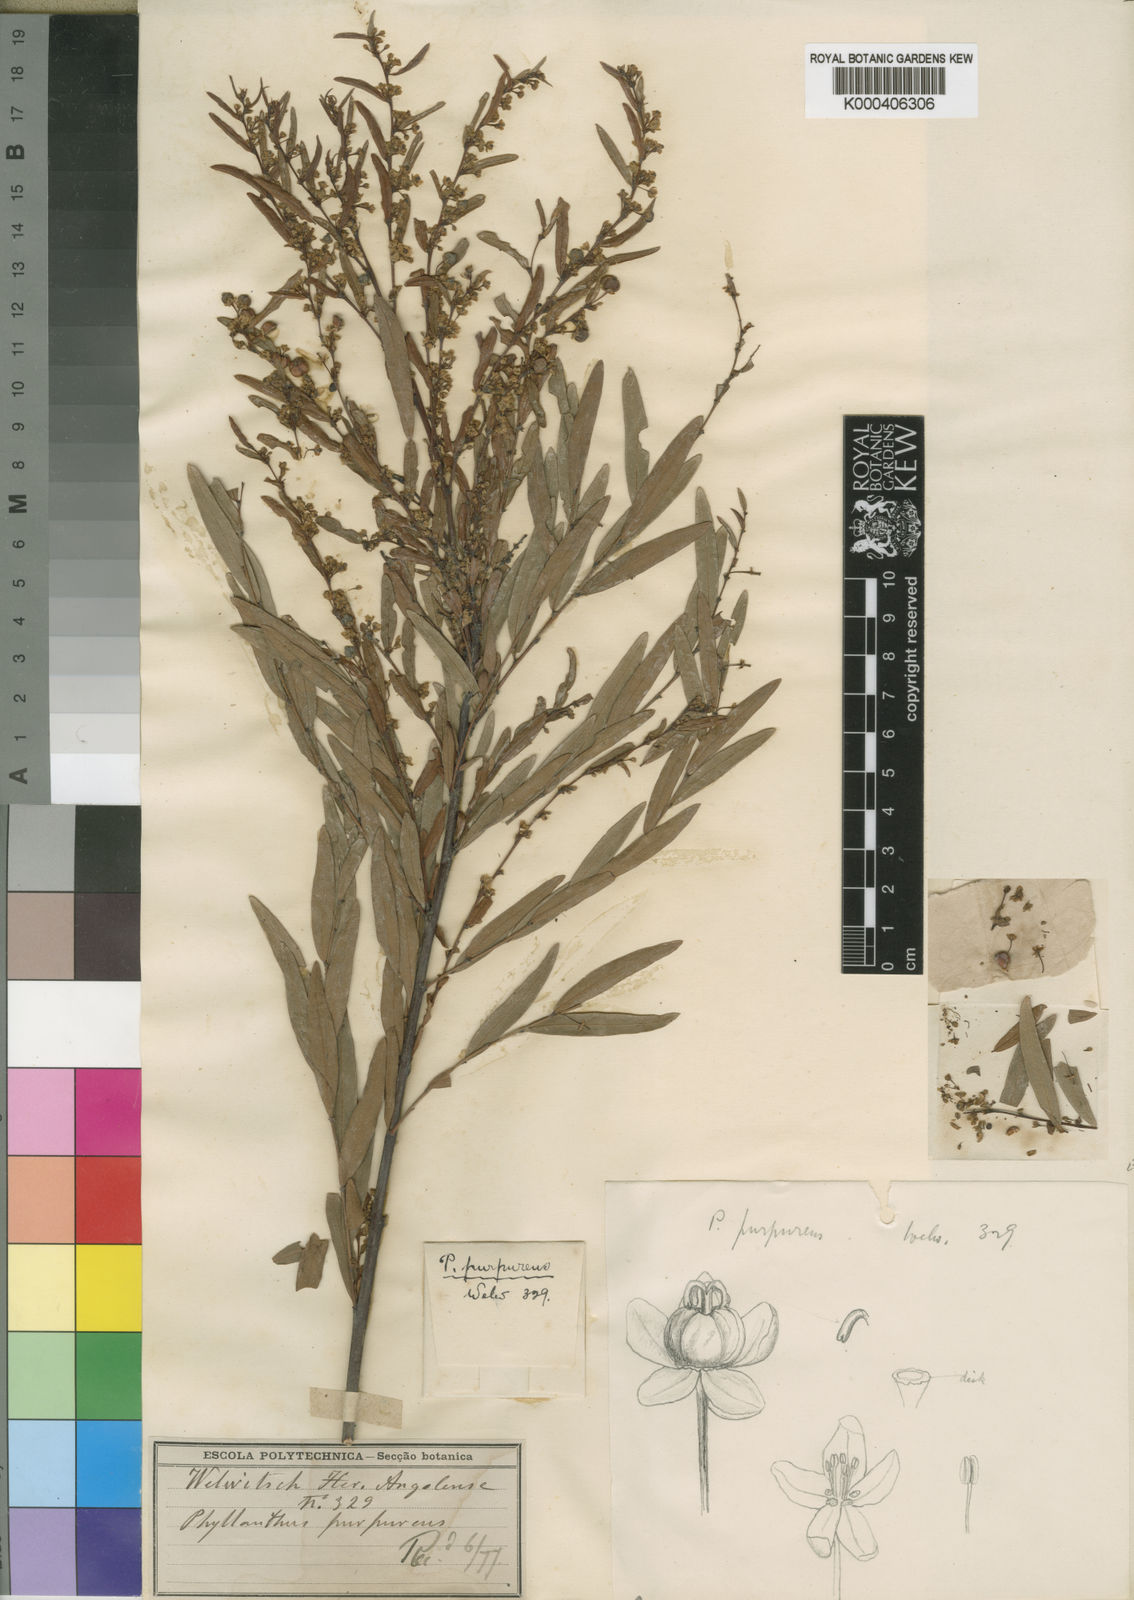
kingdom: Plantae
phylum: Tracheophyta
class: Magnoliopsida
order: Malpighiales
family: Phyllanthaceae
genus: Phyllanthus
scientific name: Phyllanthus
